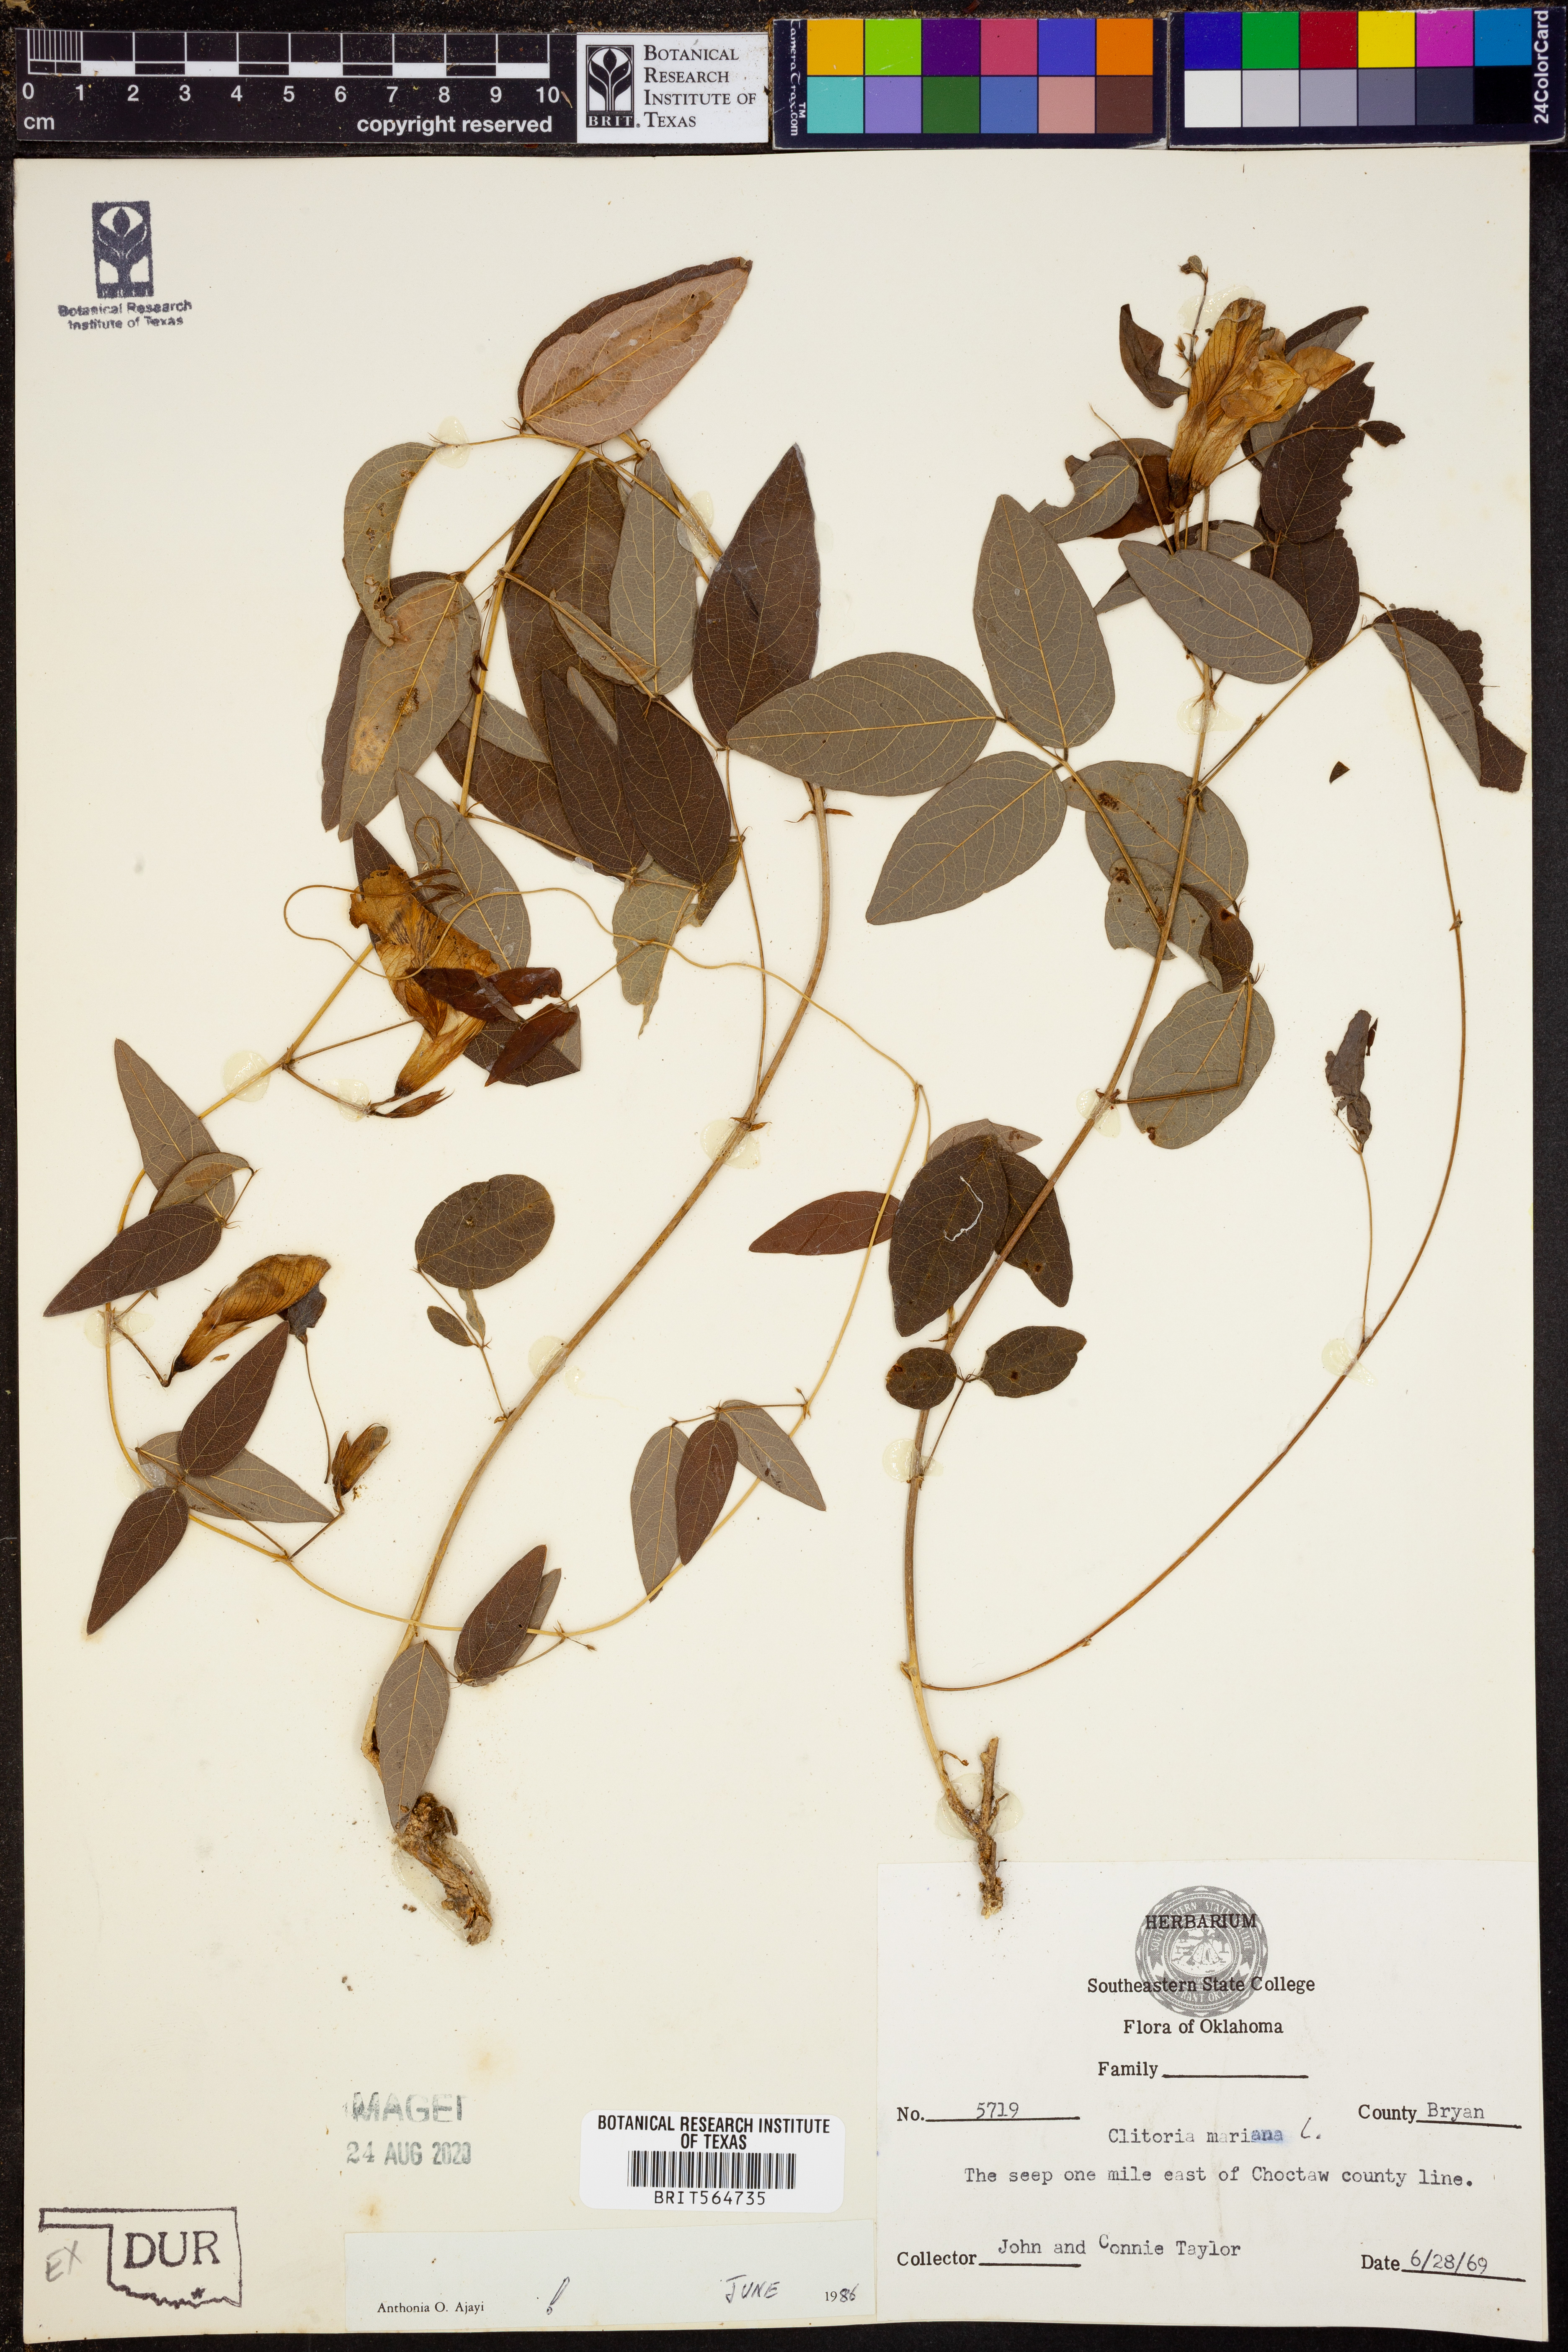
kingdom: Plantae
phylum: Tracheophyta
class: Magnoliopsida
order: Fabales
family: Fabaceae
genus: Clitoria
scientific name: Clitoria mariana
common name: Butterfly-pea
